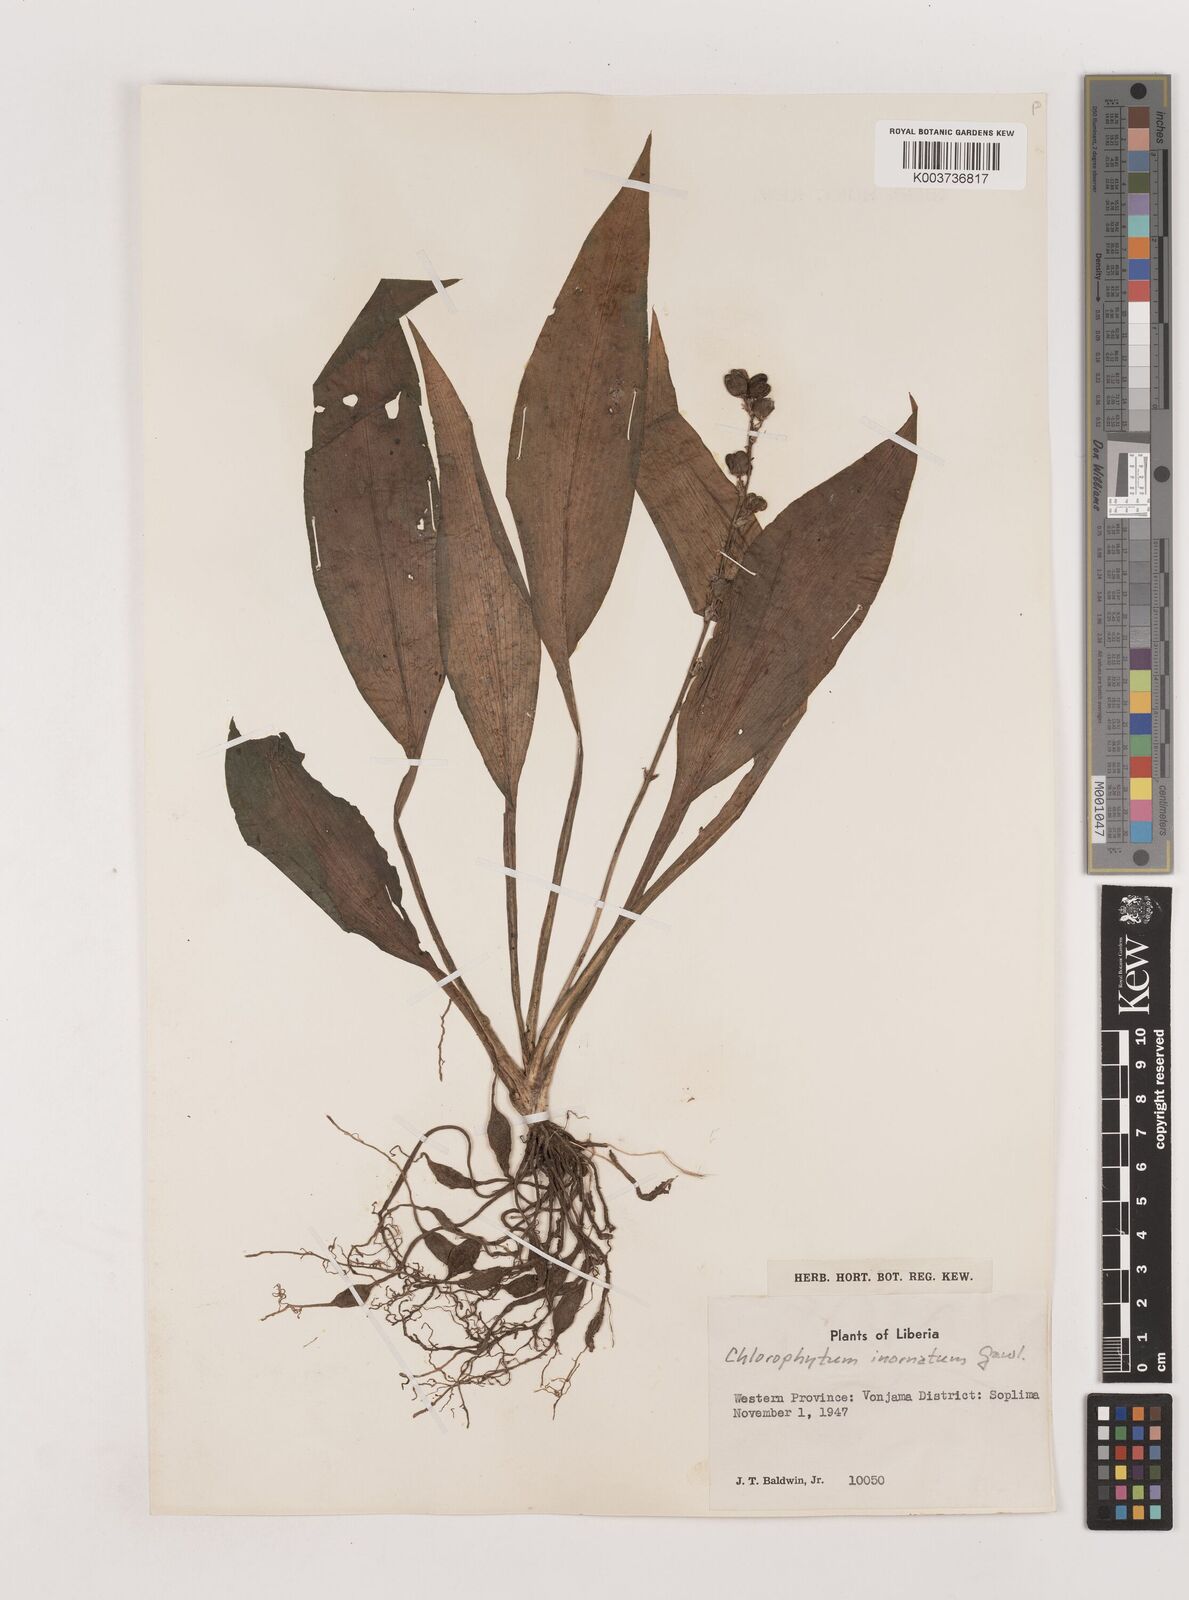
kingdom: Plantae
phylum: Tracheophyta
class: Liliopsida
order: Asparagales
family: Asparagaceae
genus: Chlorophytum
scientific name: Chlorophytum inornatum
